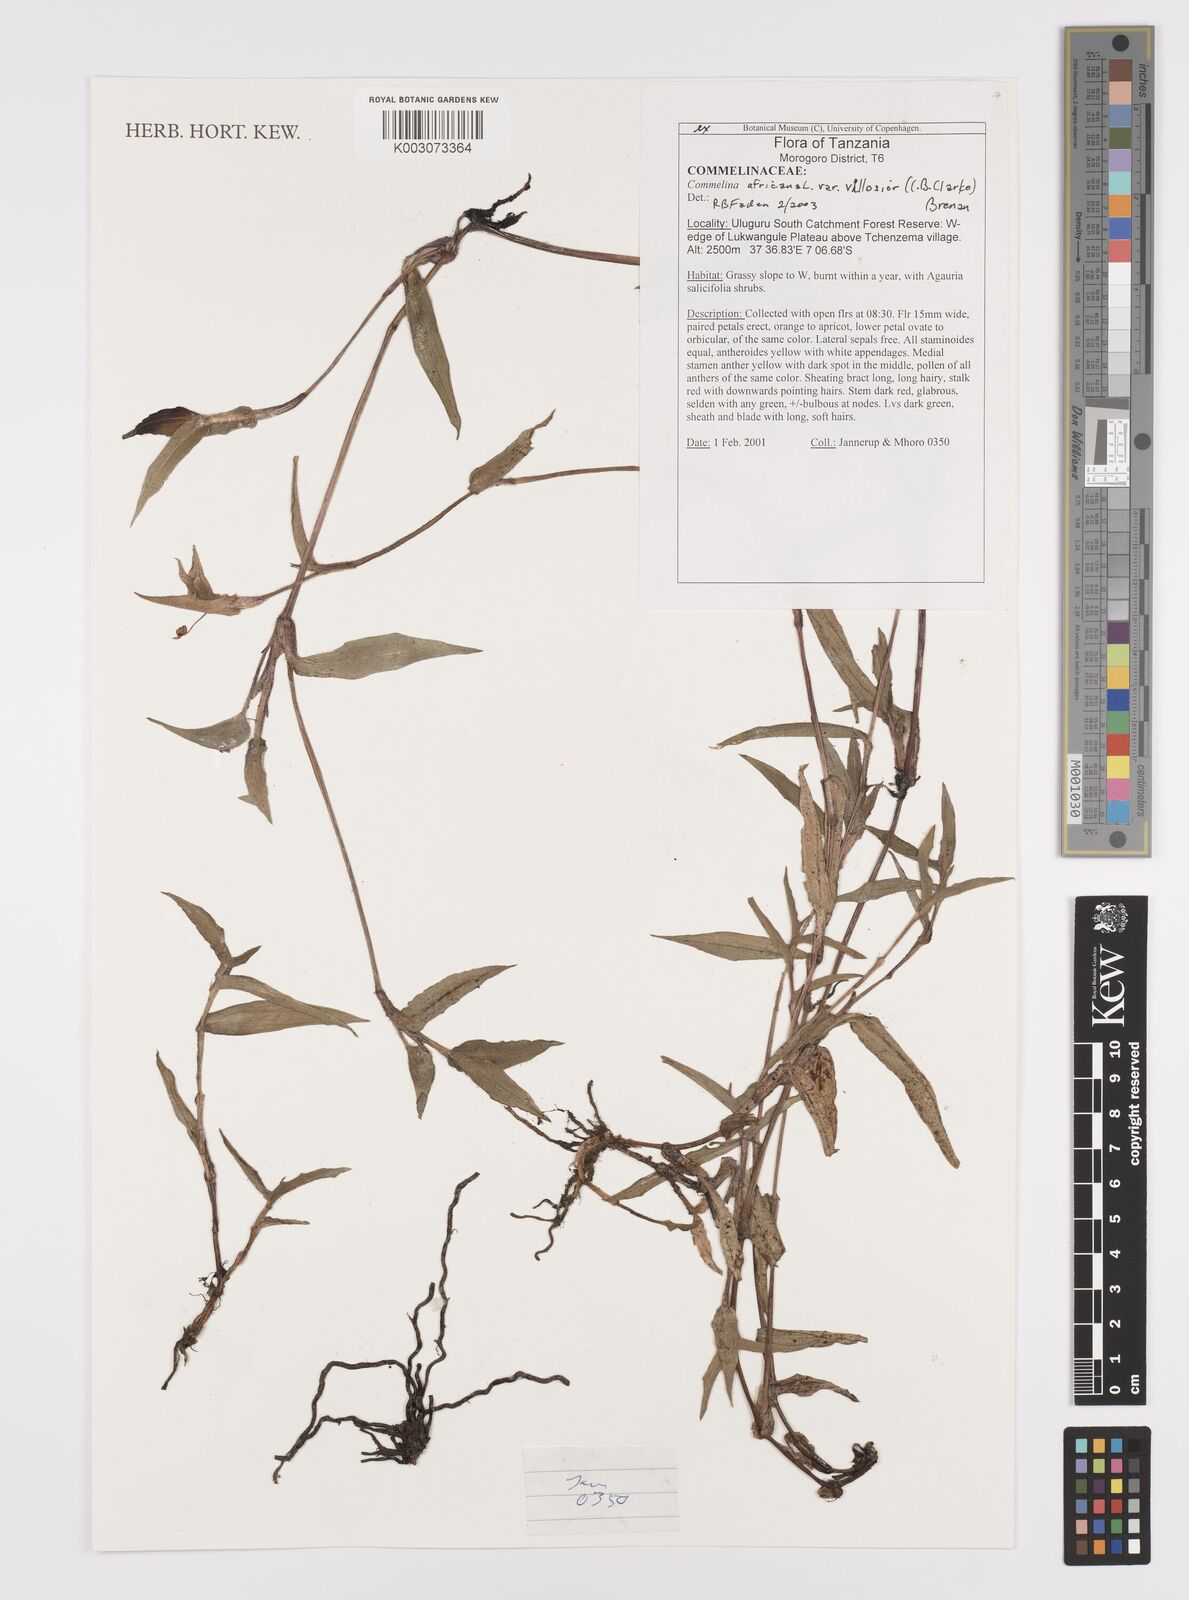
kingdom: Plantae
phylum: Tracheophyta
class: Liliopsida
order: Commelinales
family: Commelinaceae
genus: Commelina
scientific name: Commelina africana
